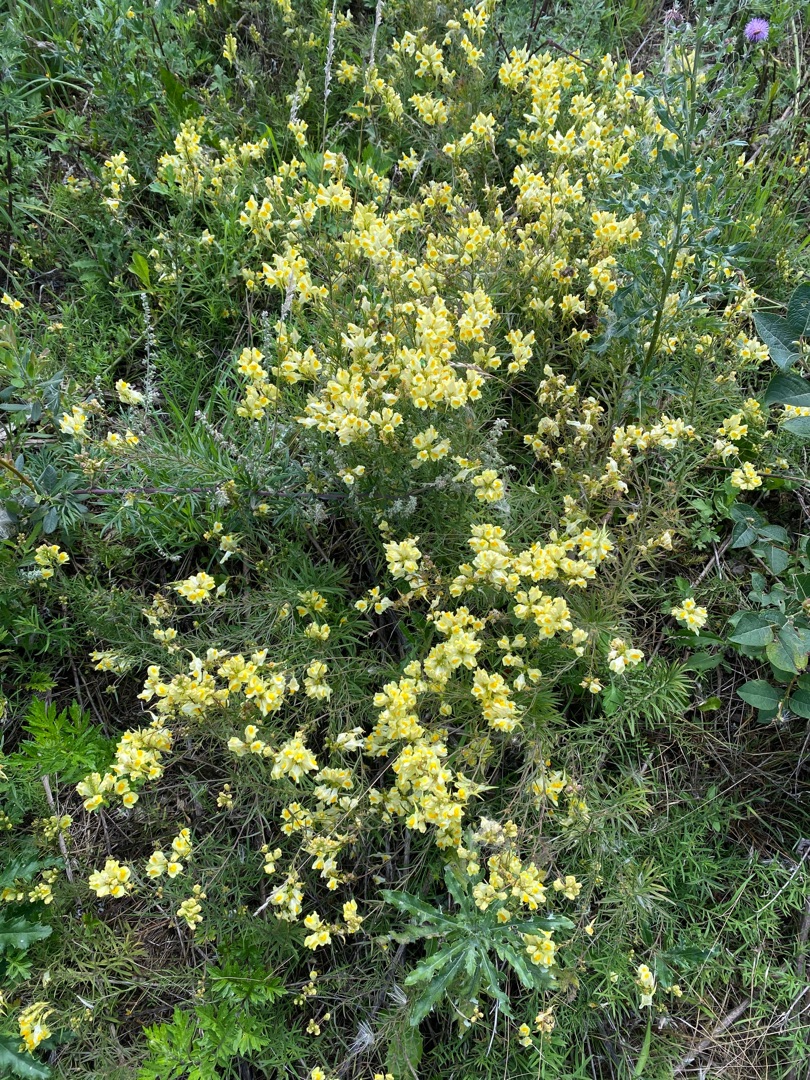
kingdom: Plantae
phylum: Tracheophyta
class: Magnoliopsida
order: Lamiales
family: Plantaginaceae
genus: Linaria
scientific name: Linaria vulgaris
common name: Almindelig torskemund
